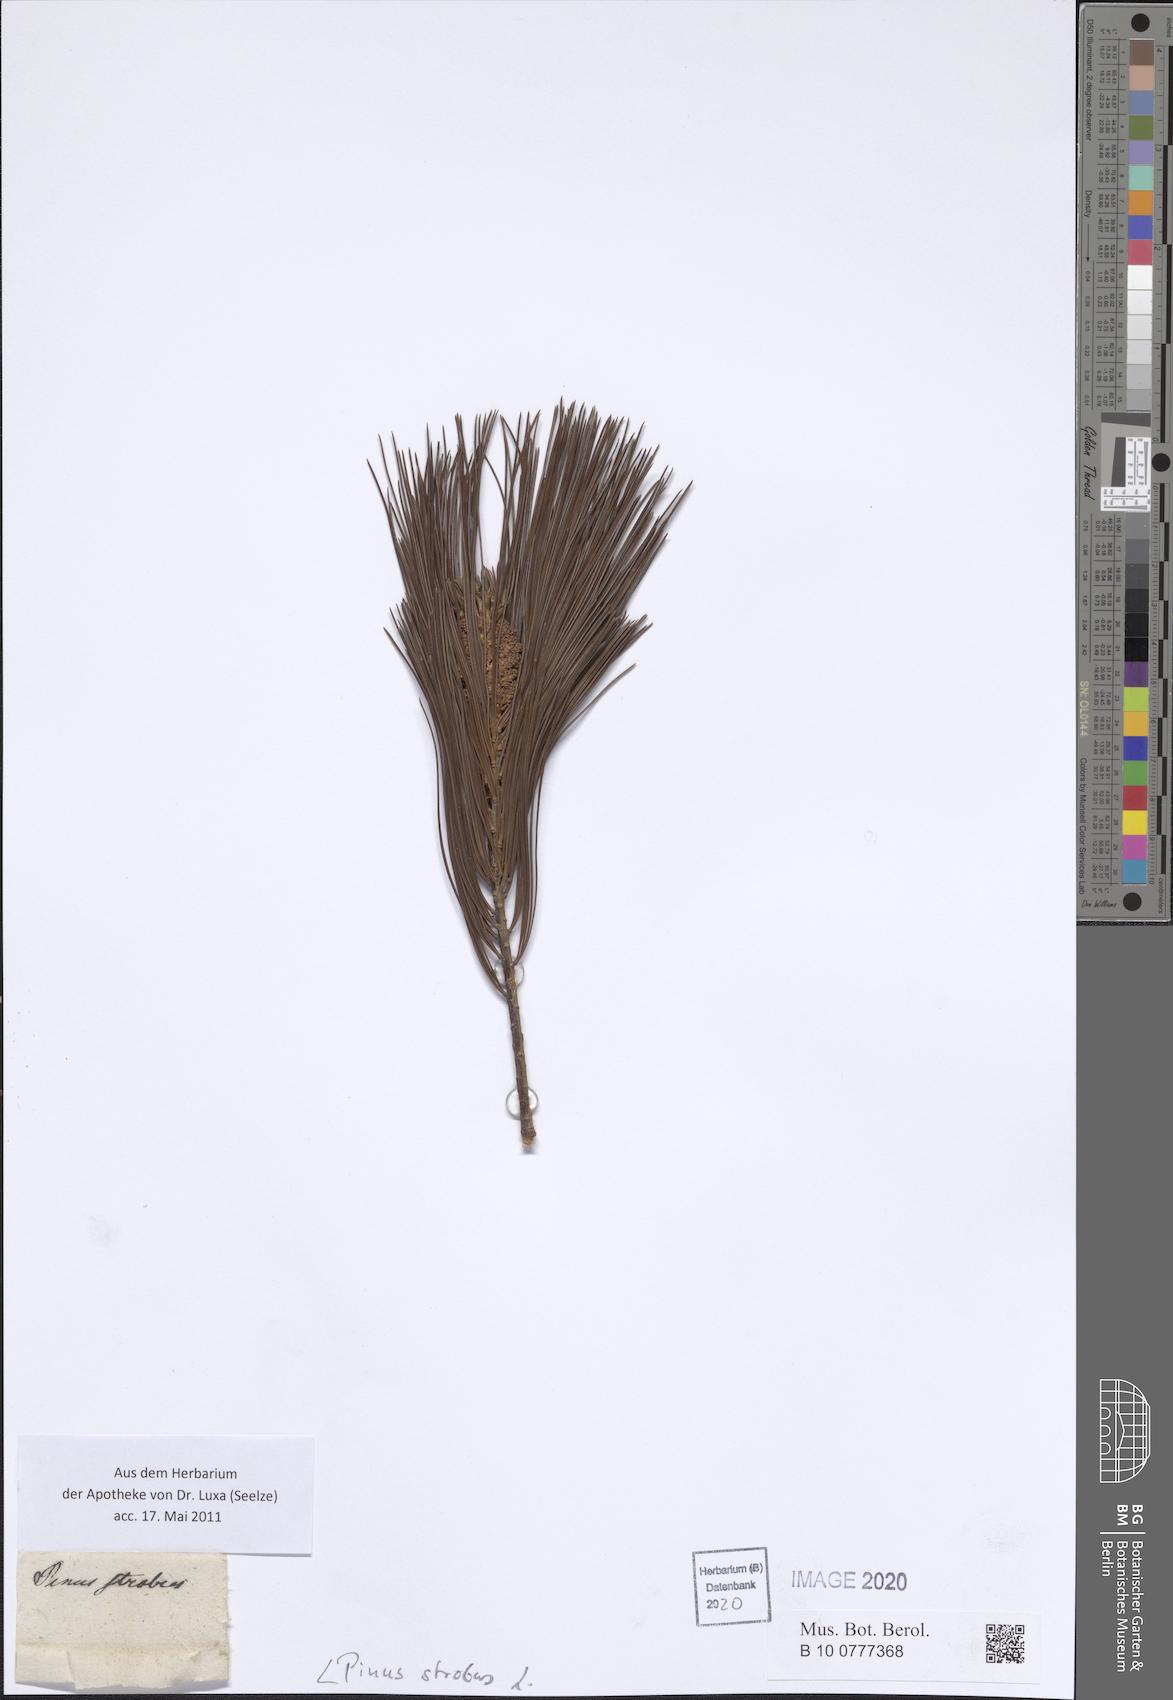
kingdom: Plantae
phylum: Tracheophyta
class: Pinopsida
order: Pinales
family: Pinaceae
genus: Pinus
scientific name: Pinus strobus
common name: Weymouth pine
